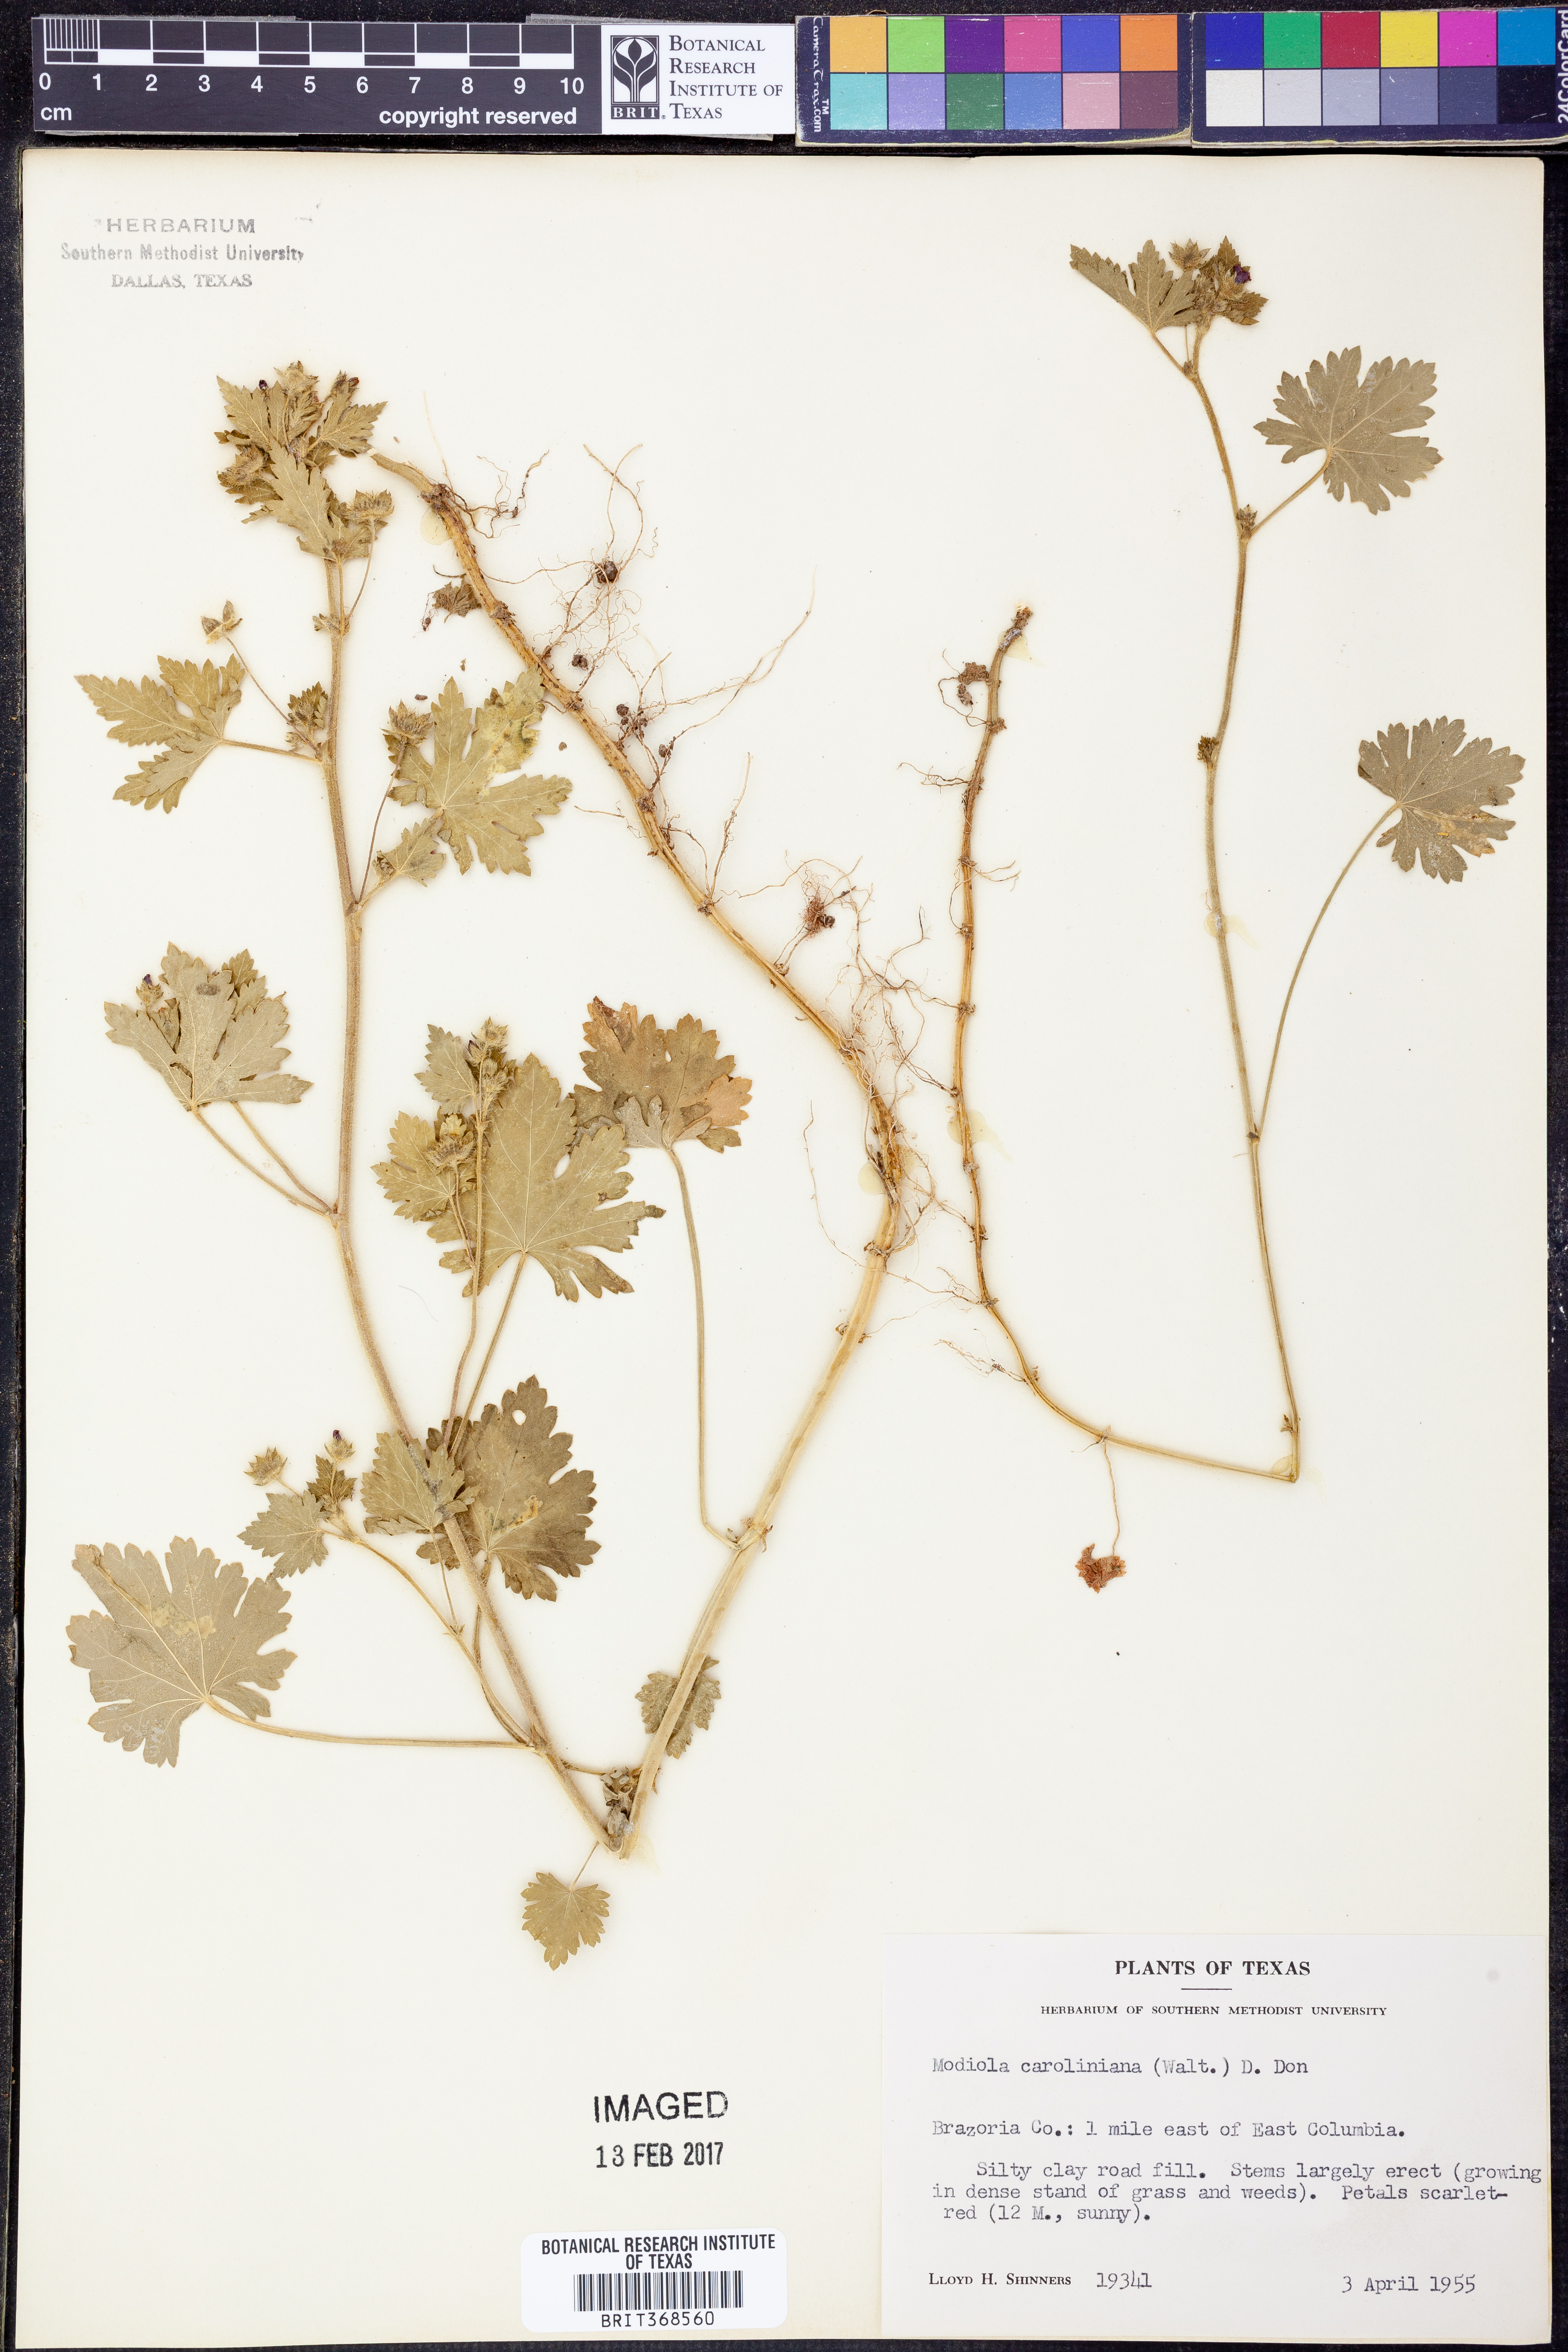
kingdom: Plantae
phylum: Tracheophyta
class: Magnoliopsida
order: Malvales
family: Malvaceae
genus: Modiola
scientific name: Modiola caroliniana
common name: Carolina bristlemallow
